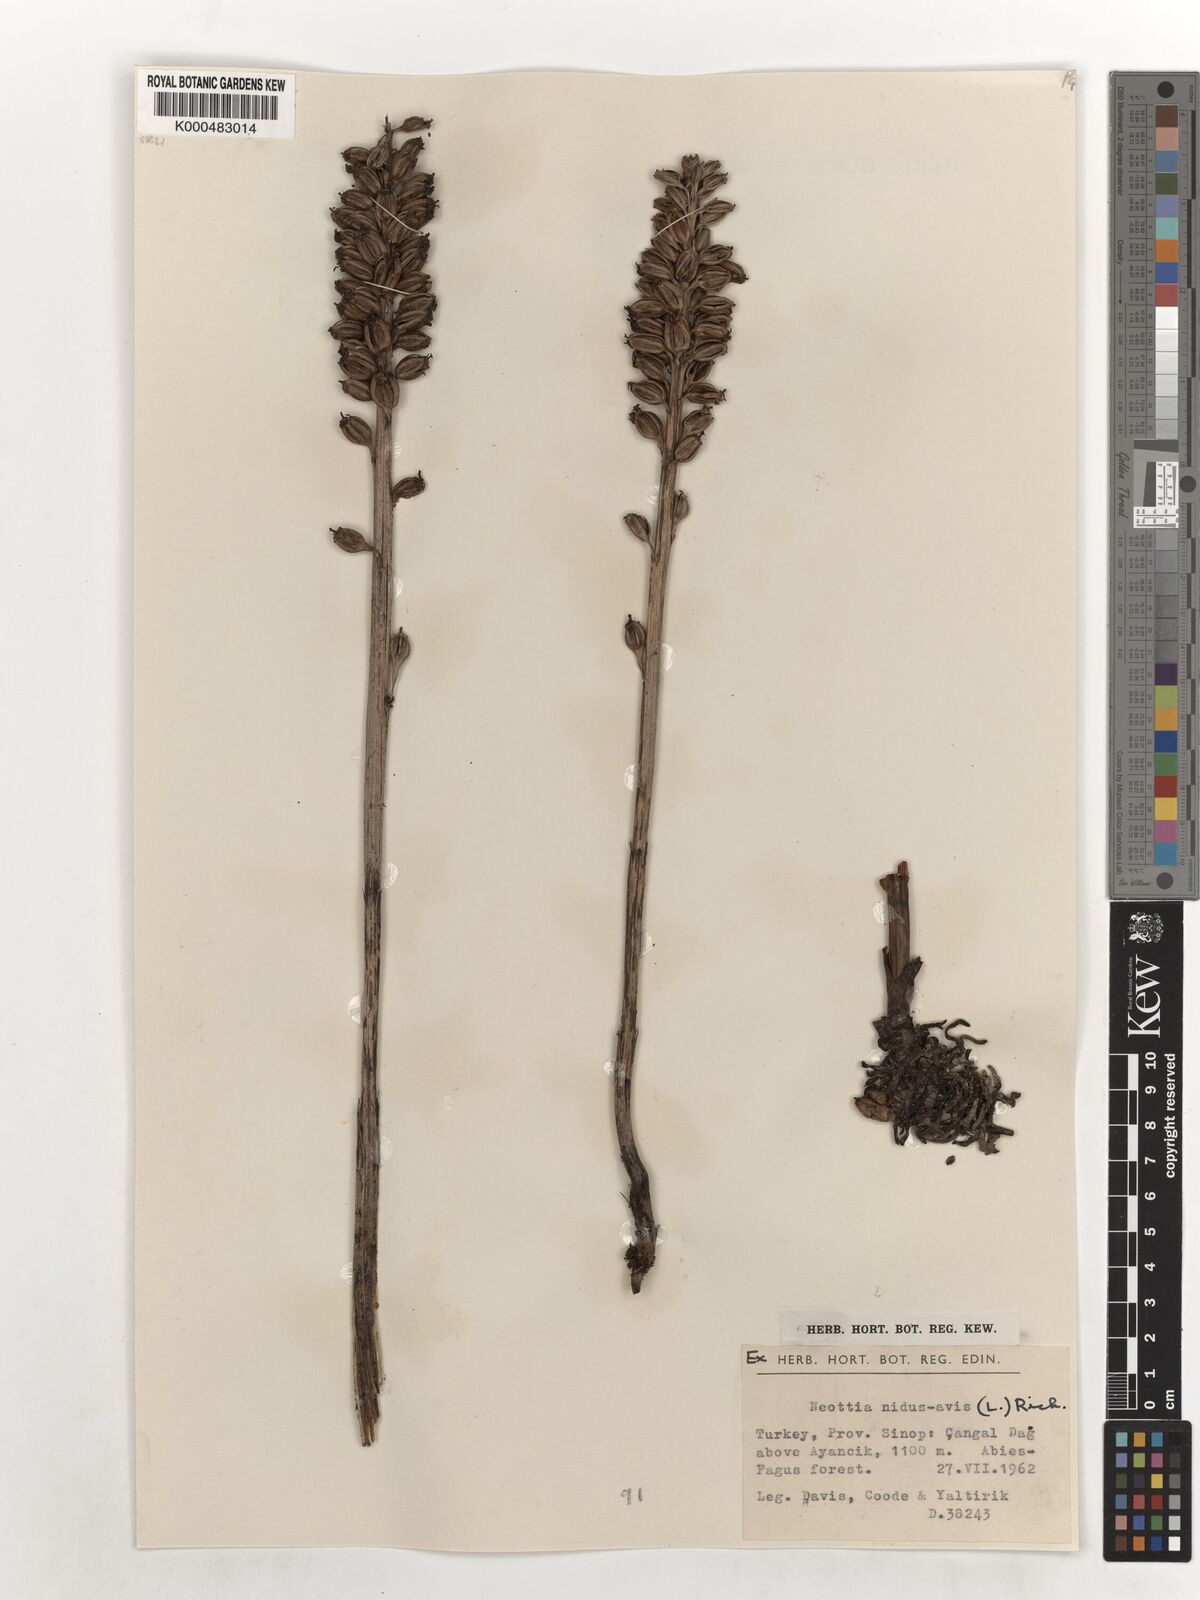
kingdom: Plantae
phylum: Tracheophyta
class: Liliopsida
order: Asparagales
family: Orchidaceae
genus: Neottia
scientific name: Neottia nidus-avis
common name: Bird's-nest orchid
